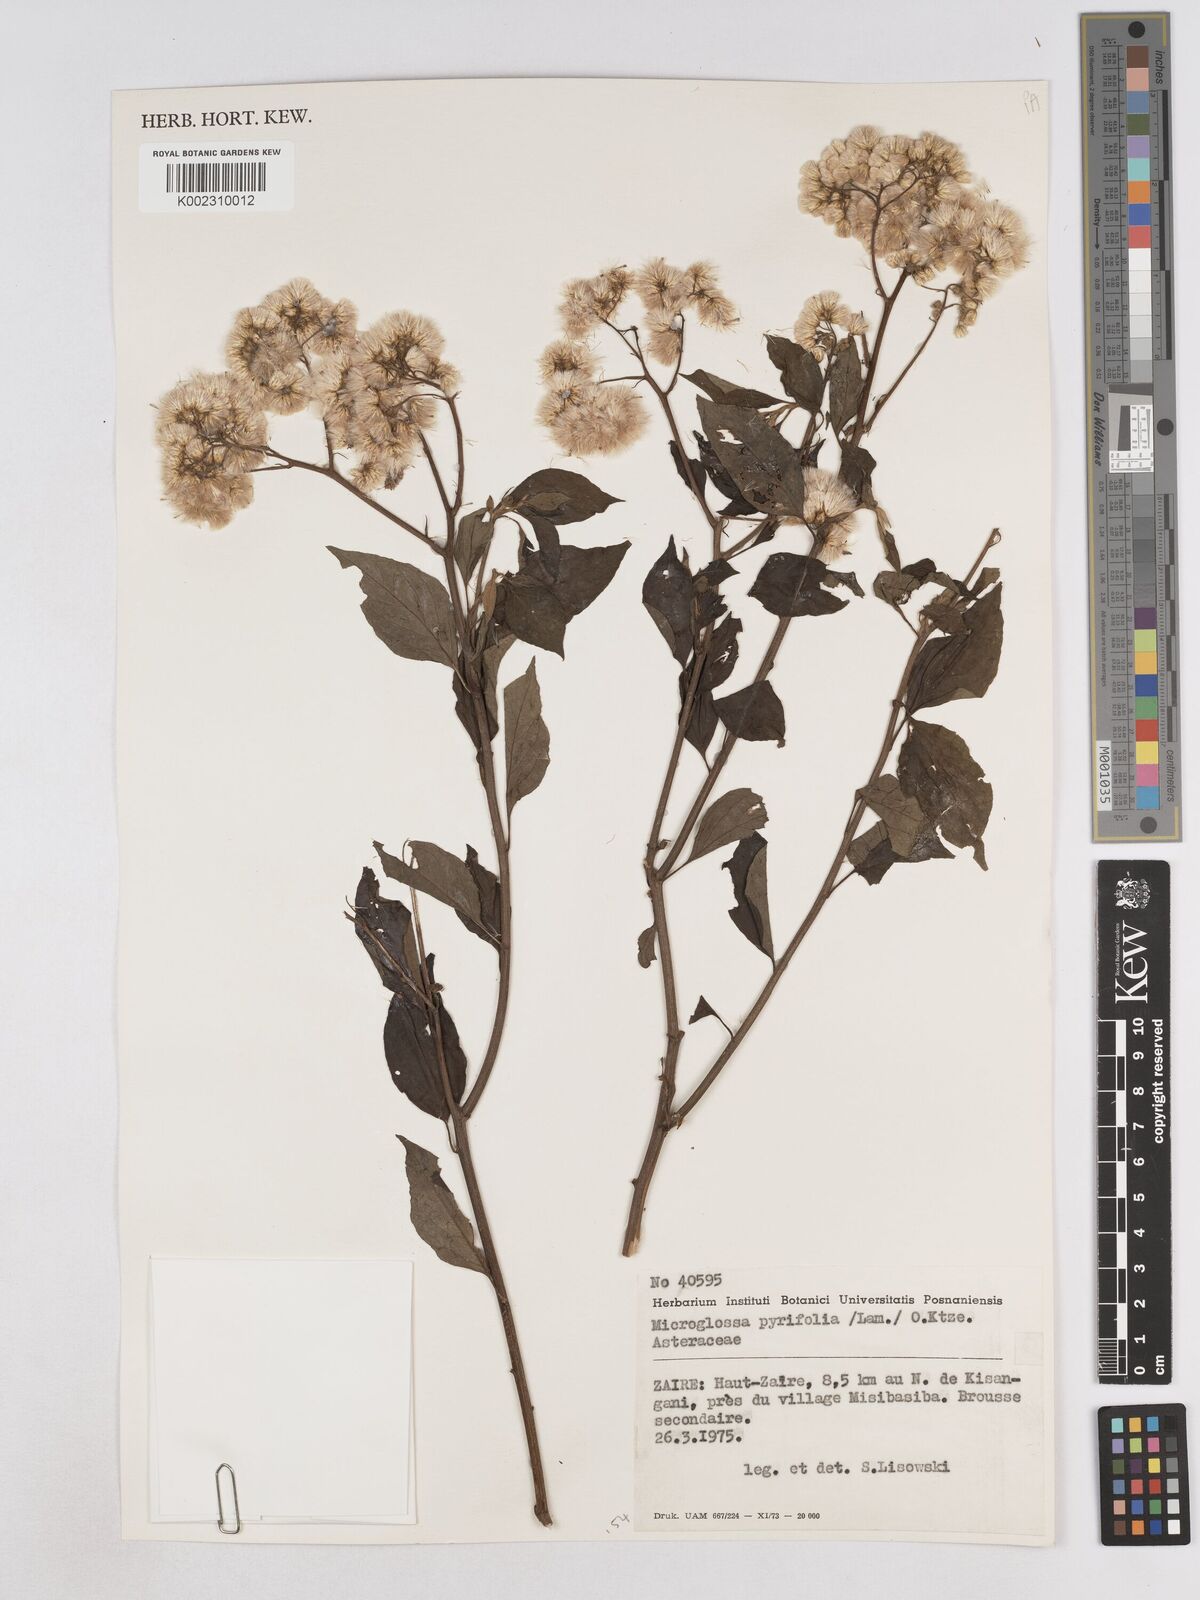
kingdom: Plantae
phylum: Tracheophyta
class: Magnoliopsida
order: Asterales
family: Asteraceae
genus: Microglossa
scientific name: Microglossa pyrifolia
